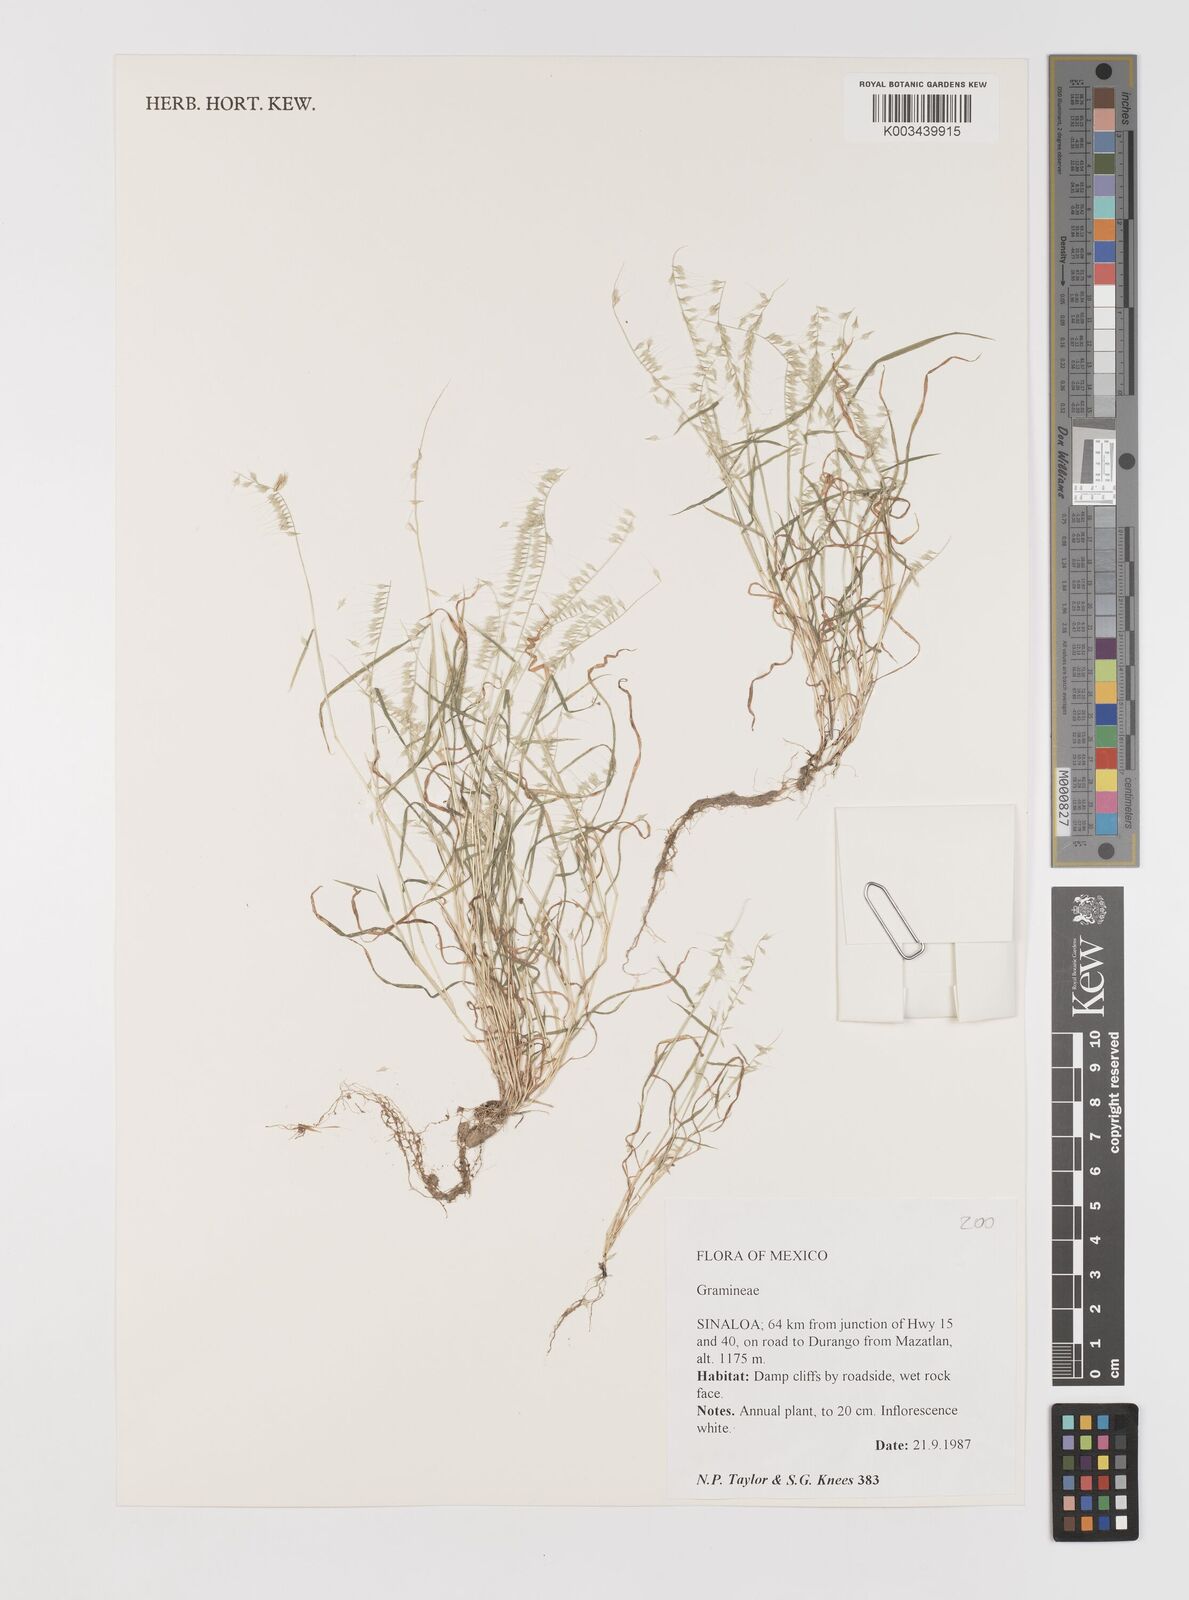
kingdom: Plantae
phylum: Tracheophyta
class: Liliopsida
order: Poales
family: Poaceae
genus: Muhlenbergia
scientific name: Muhlenbergia uniseta
